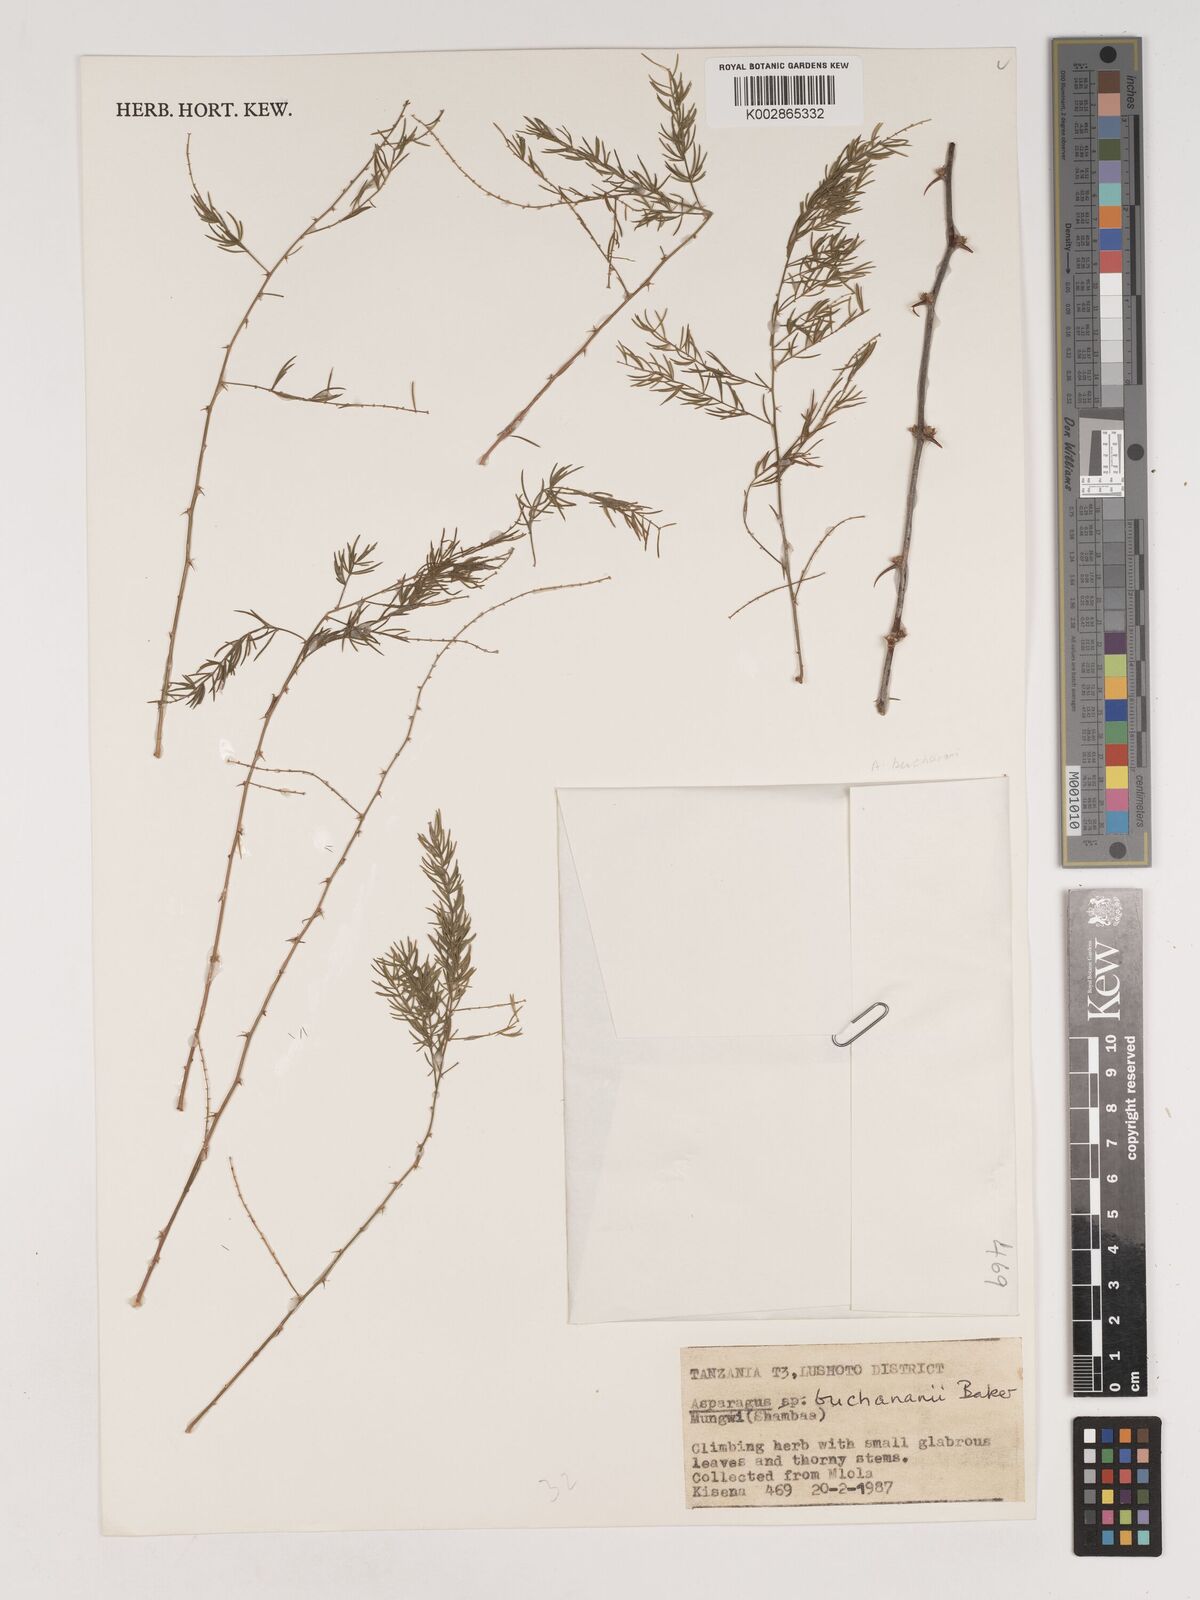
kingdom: Plantae
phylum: Tracheophyta
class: Liliopsida
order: Asparagales
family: Asparagaceae
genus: Asparagus
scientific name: Asparagus
